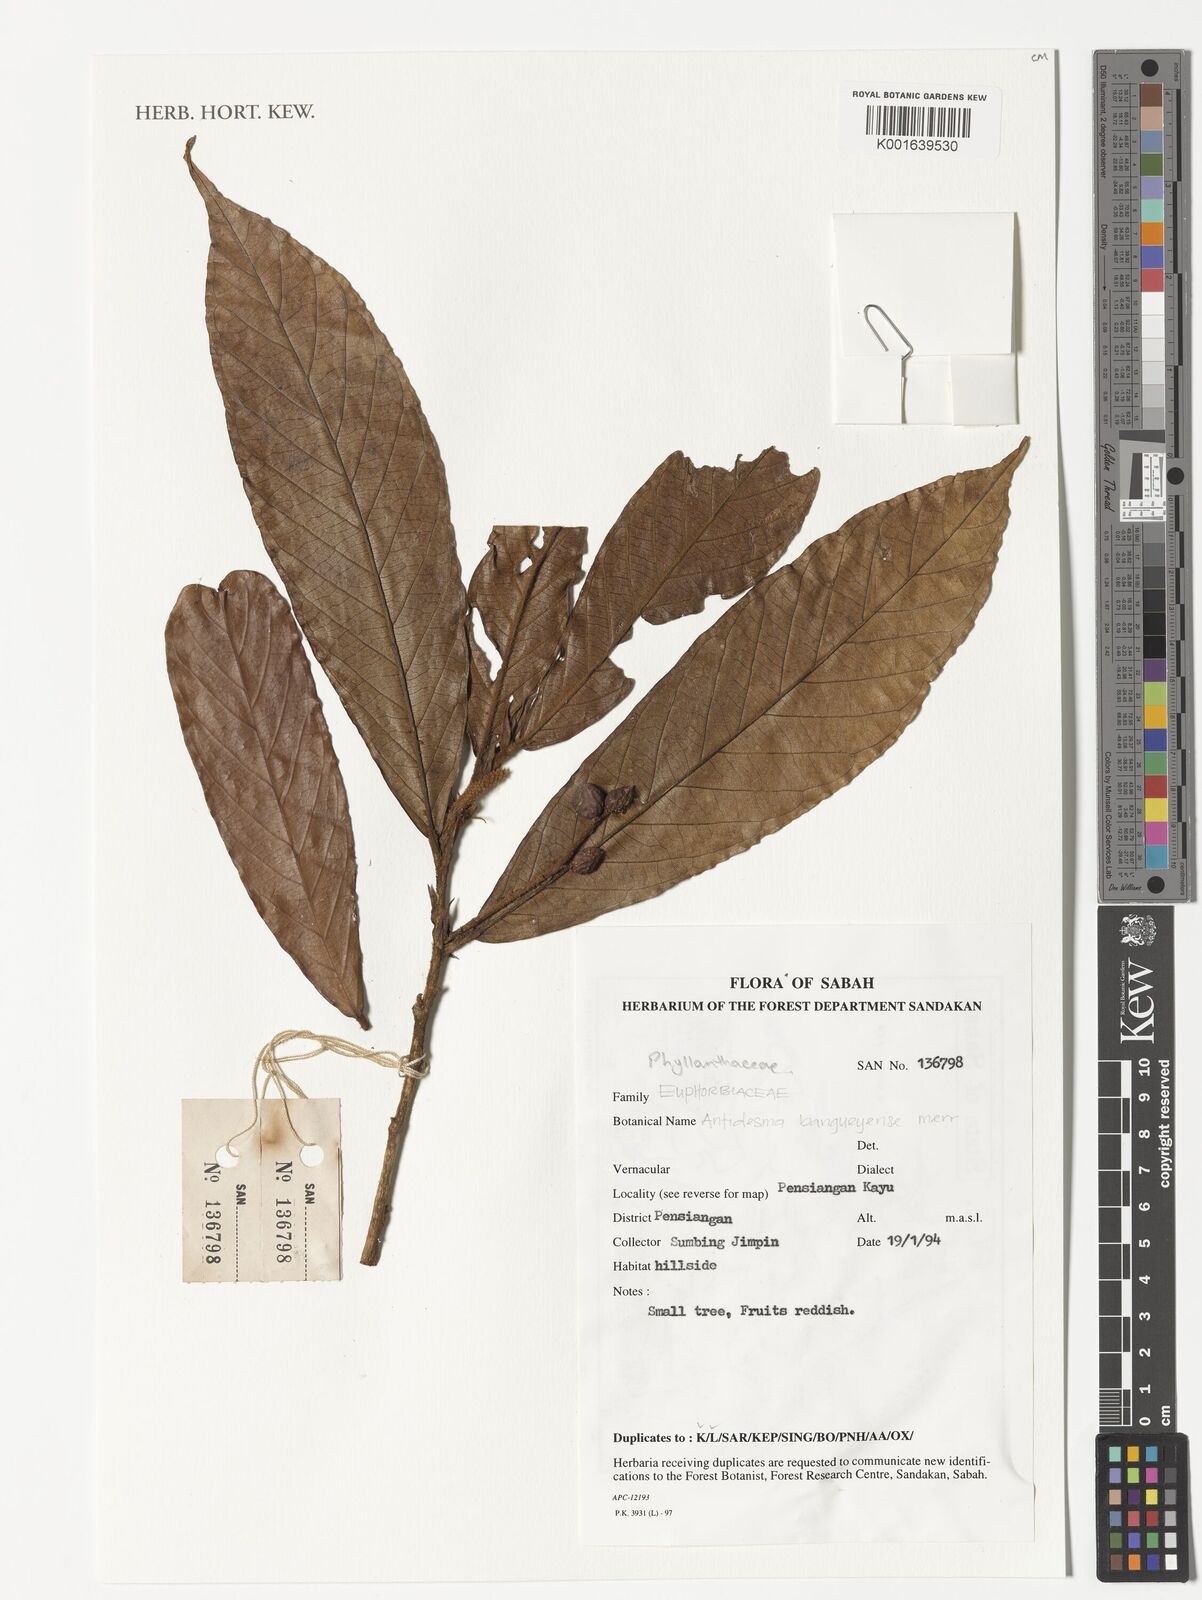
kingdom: Plantae
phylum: Tracheophyta
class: Magnoliopsida
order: Malpighiales
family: Phyllanthaceae
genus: Antidesma
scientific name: Antidesma tomentosum
